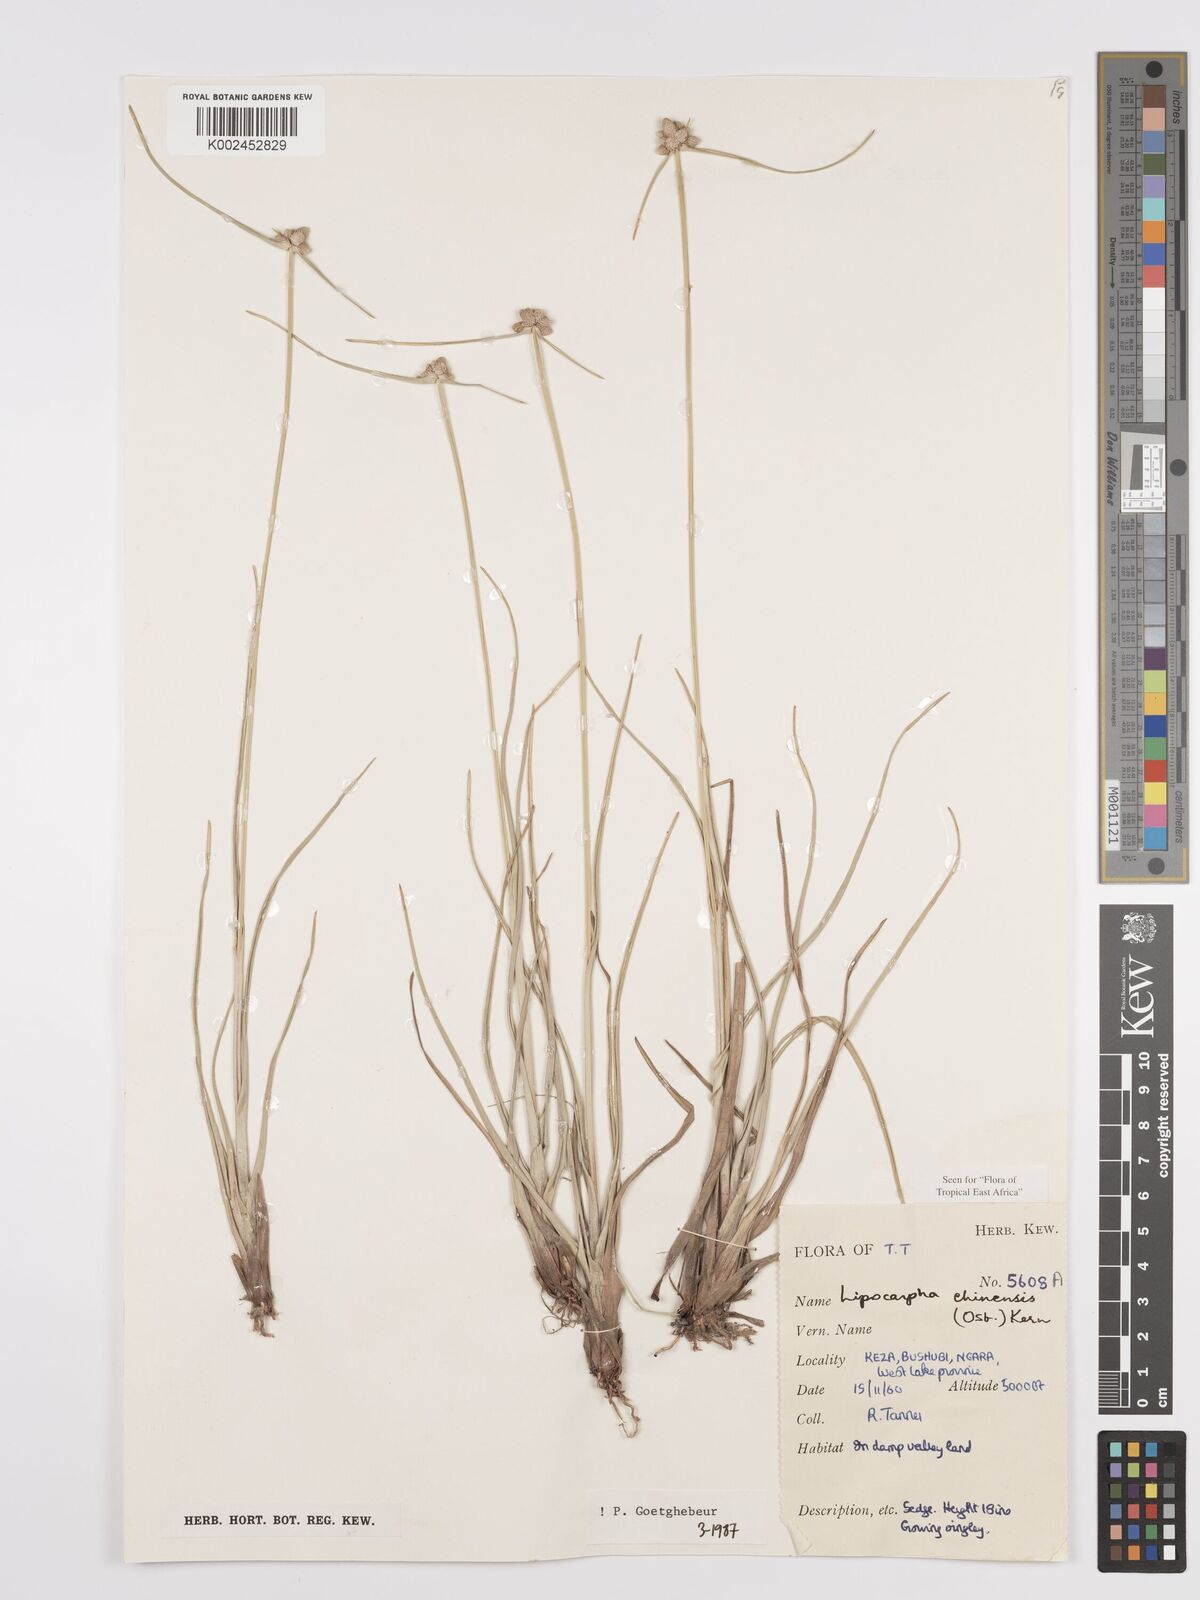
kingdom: Plantae
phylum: Tracheophyta
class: Liliopsida
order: Poales
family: Cyperaceae
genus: Cyperus
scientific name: Cyperus
